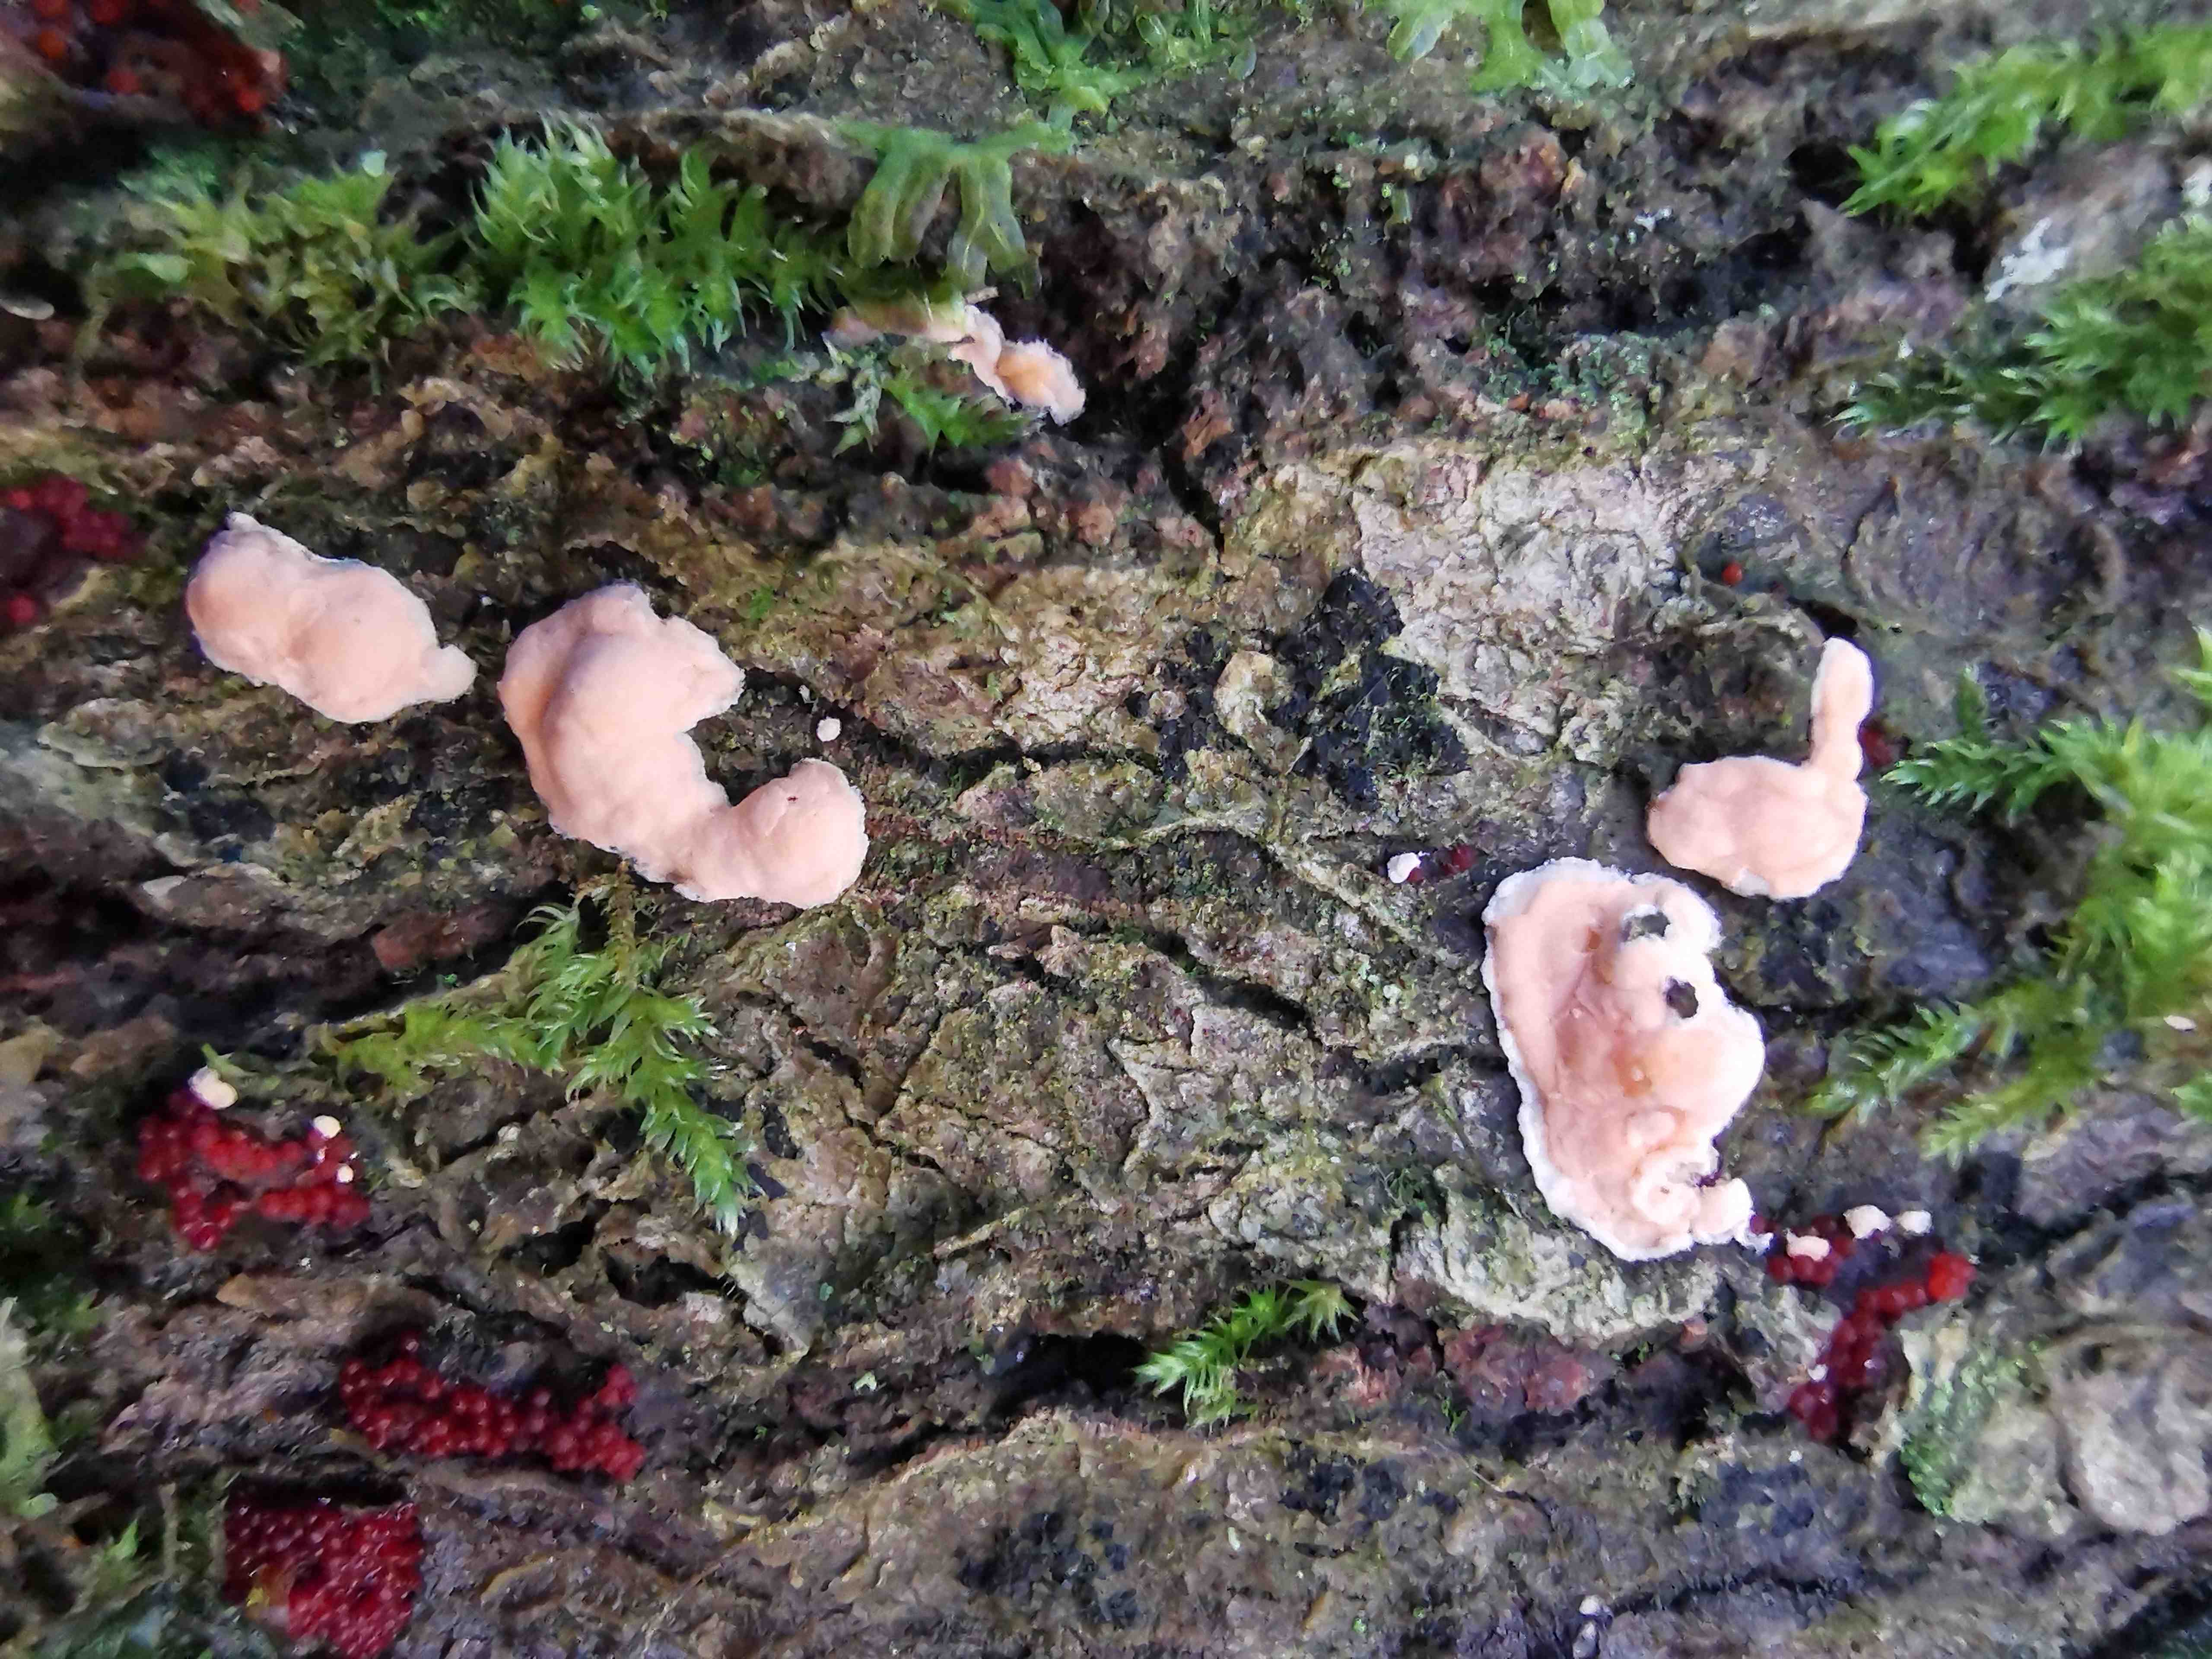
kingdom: Fungi
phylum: Ascomycota
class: Sordariomycetes
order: Hypocreales
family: Nectriaceae
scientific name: Nectriaceae
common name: cinnobersvampfamilien
